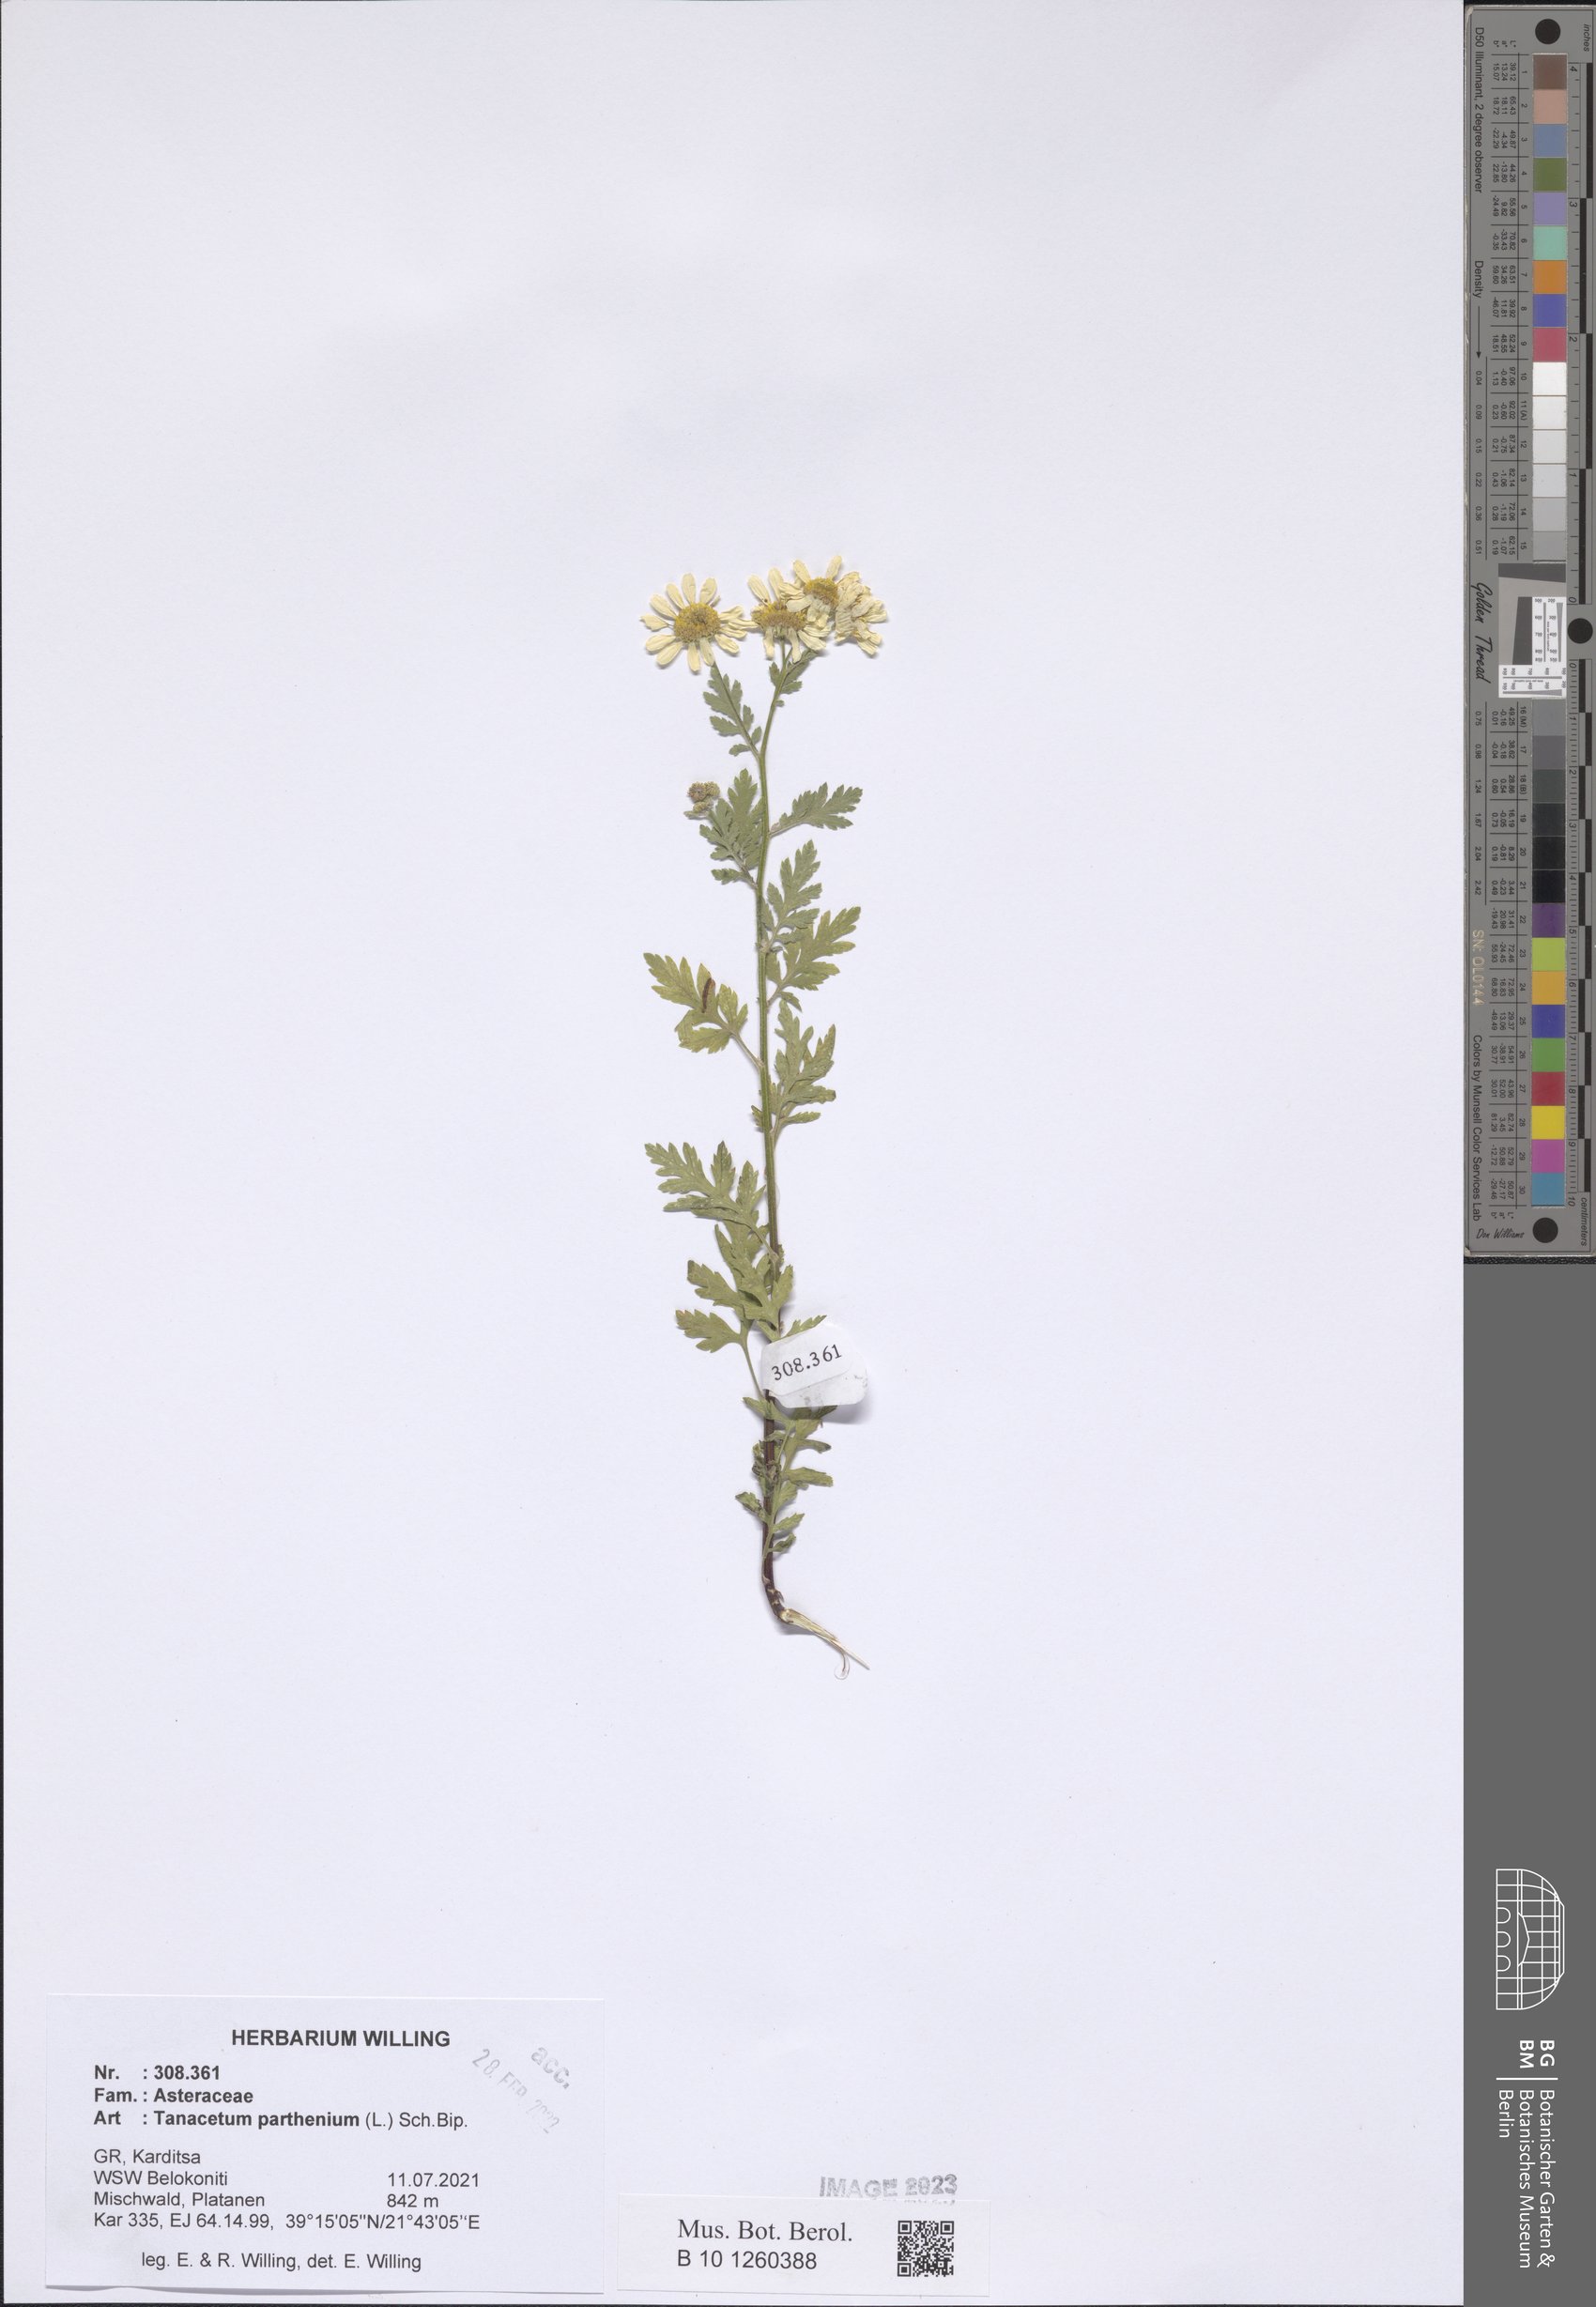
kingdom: Plantae
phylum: Tracheophyta
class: Magnoliopsida
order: Asterales
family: Asteraceae
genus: Tanacetum
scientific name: Tanacetum parthenium
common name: Feverfew
